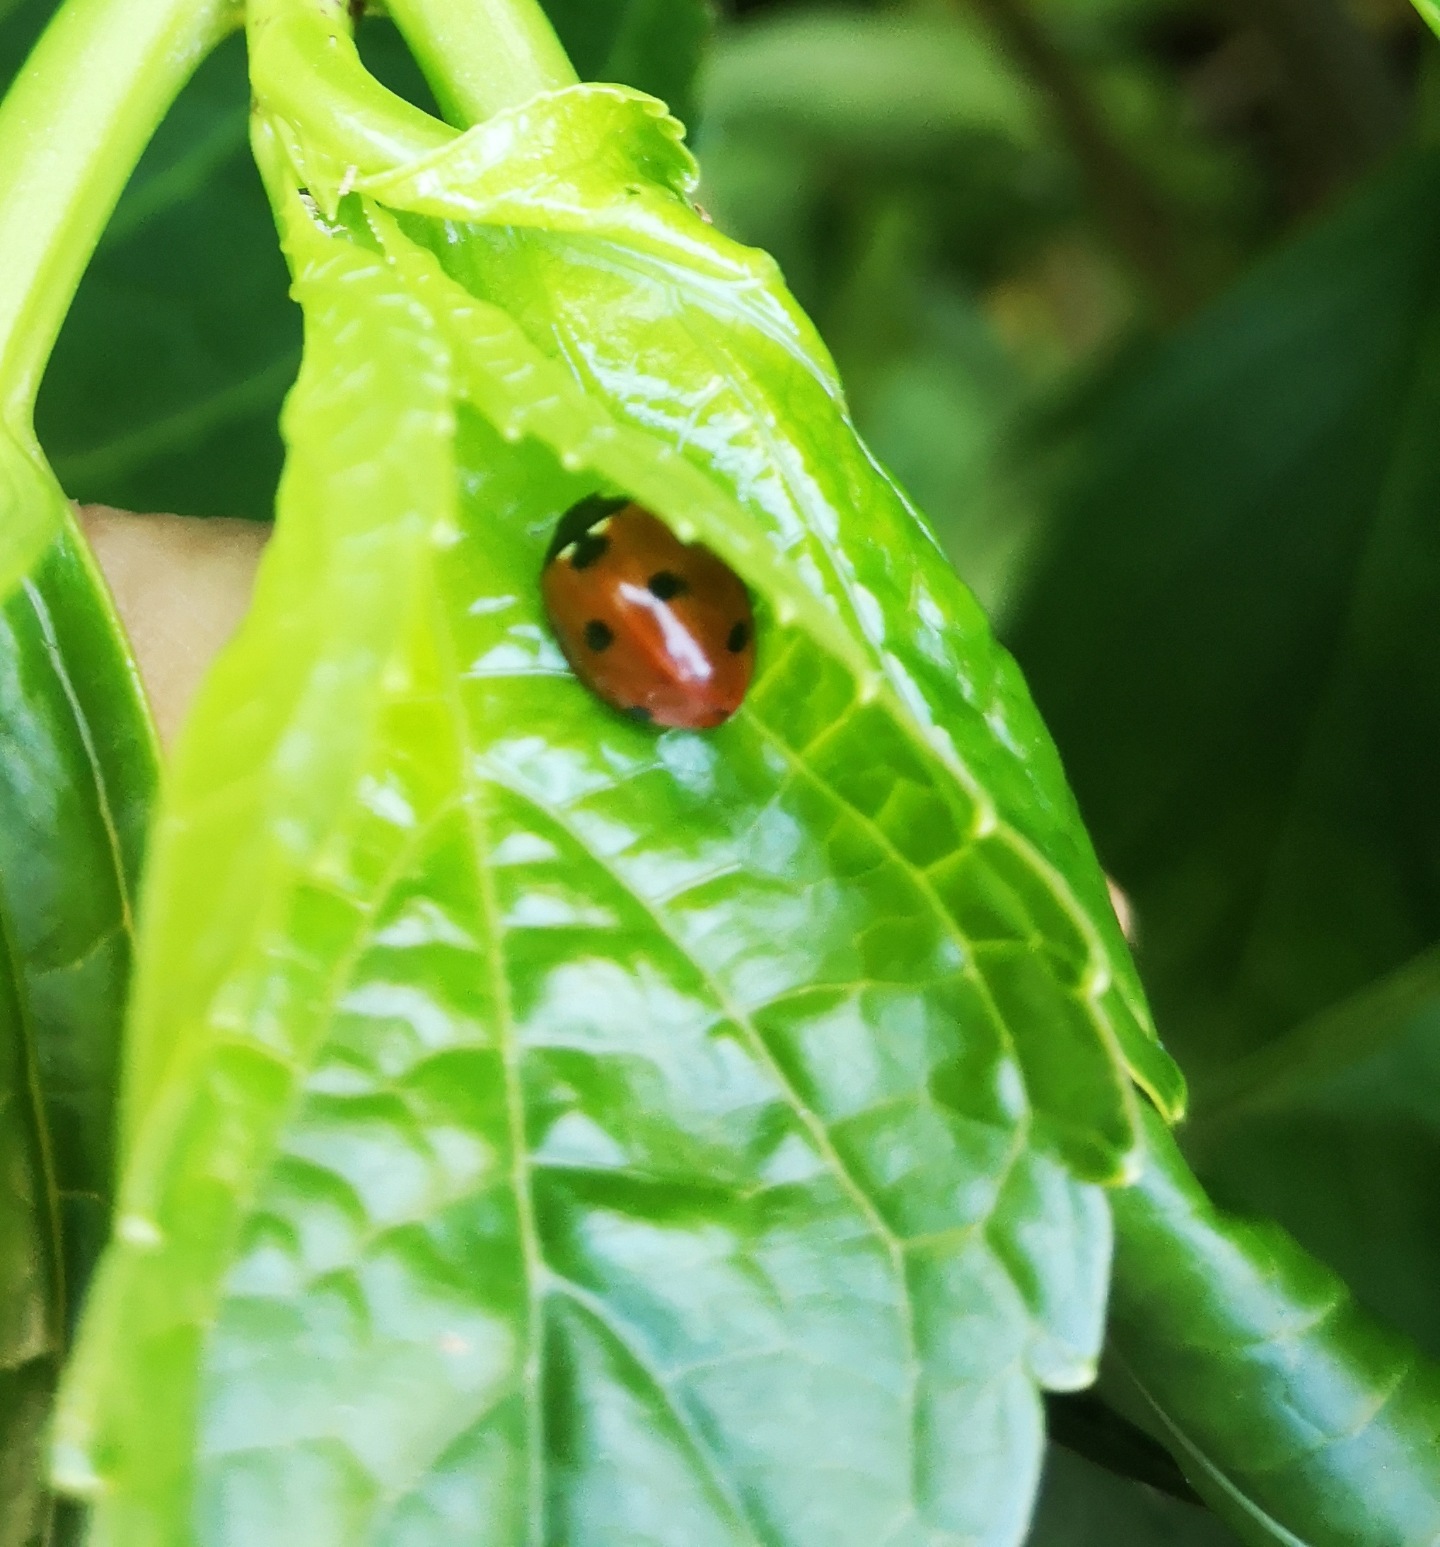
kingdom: Animalia
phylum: Arthropoda
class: Insecta
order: Coleoptera
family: Coccinellidae
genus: Coccinella
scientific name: Coccinella septempunctata
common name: Syvplettet mariehøne
